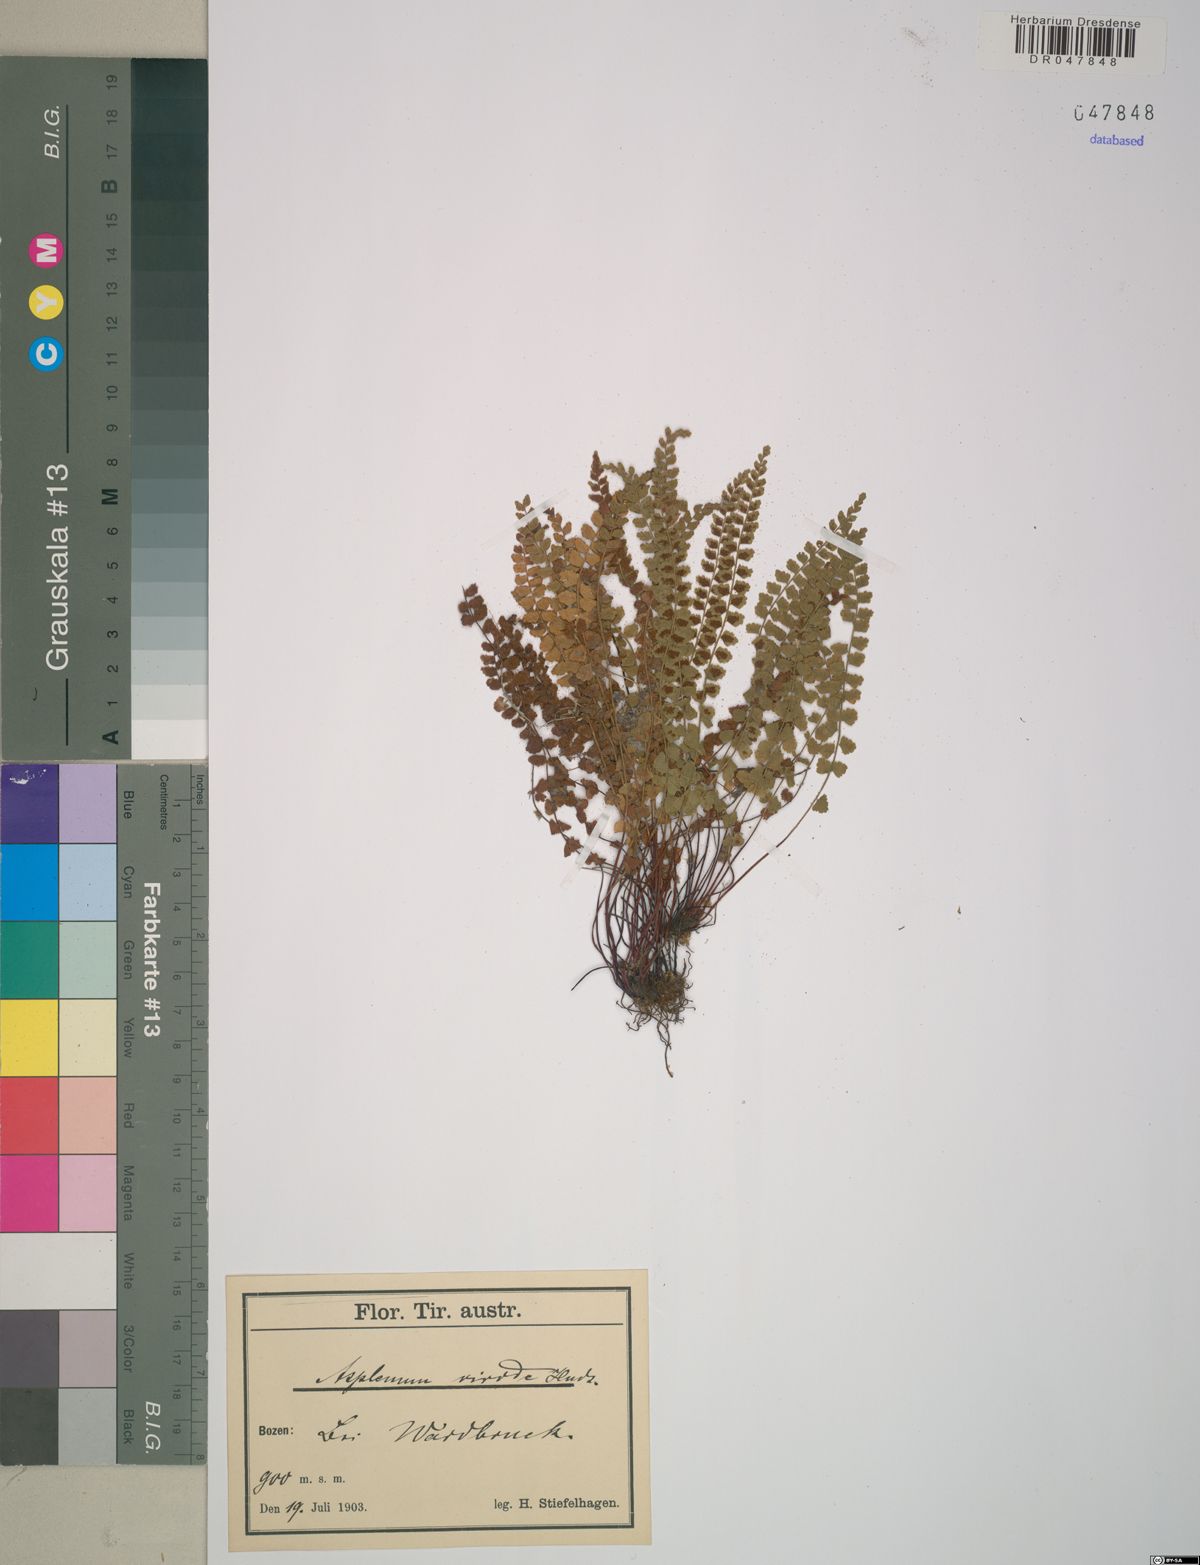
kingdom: Plantae
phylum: Tracheophyta
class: Polypodiopsida
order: Polypodiales
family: Aspleniaceae
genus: Asplenium
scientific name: Asplenium viride
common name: Green spleenwort
